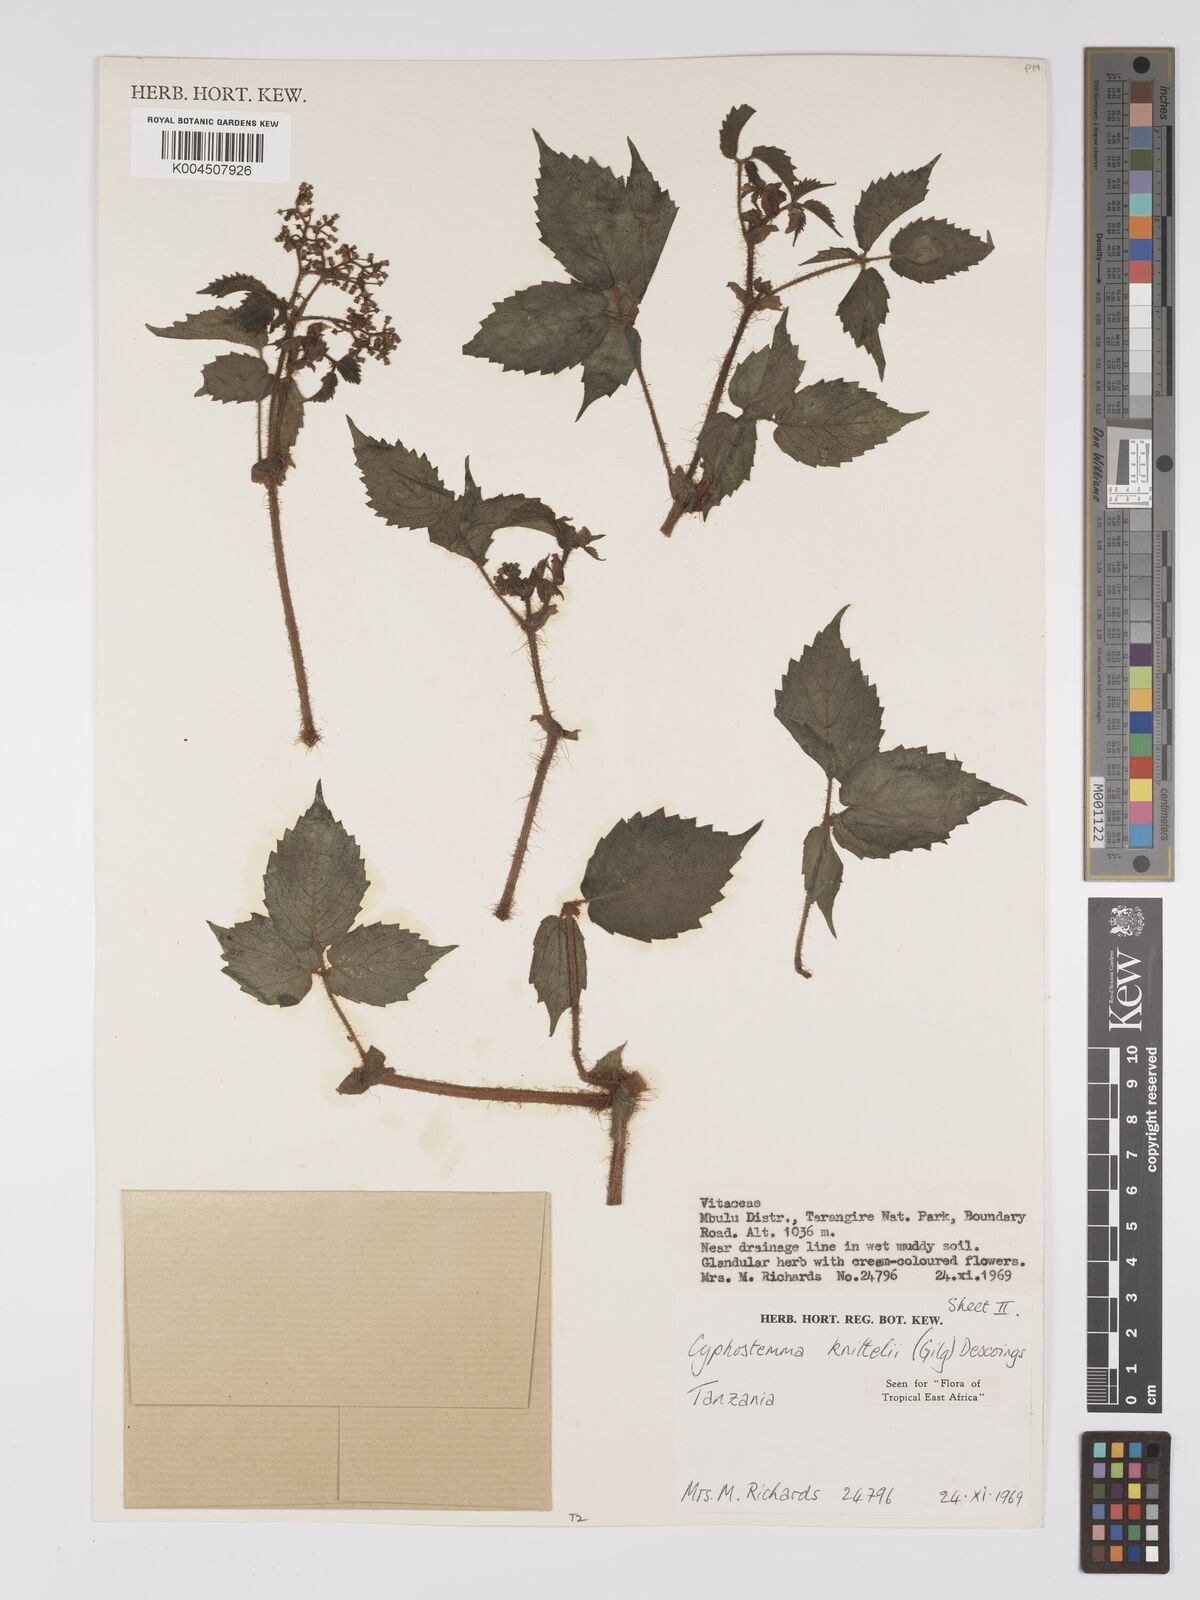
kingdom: Plantae
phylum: Tracheophyta
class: Magnoliopsida
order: Vitales
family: Vitaceae
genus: Cyphostemma
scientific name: Cyphostemma knittelii
